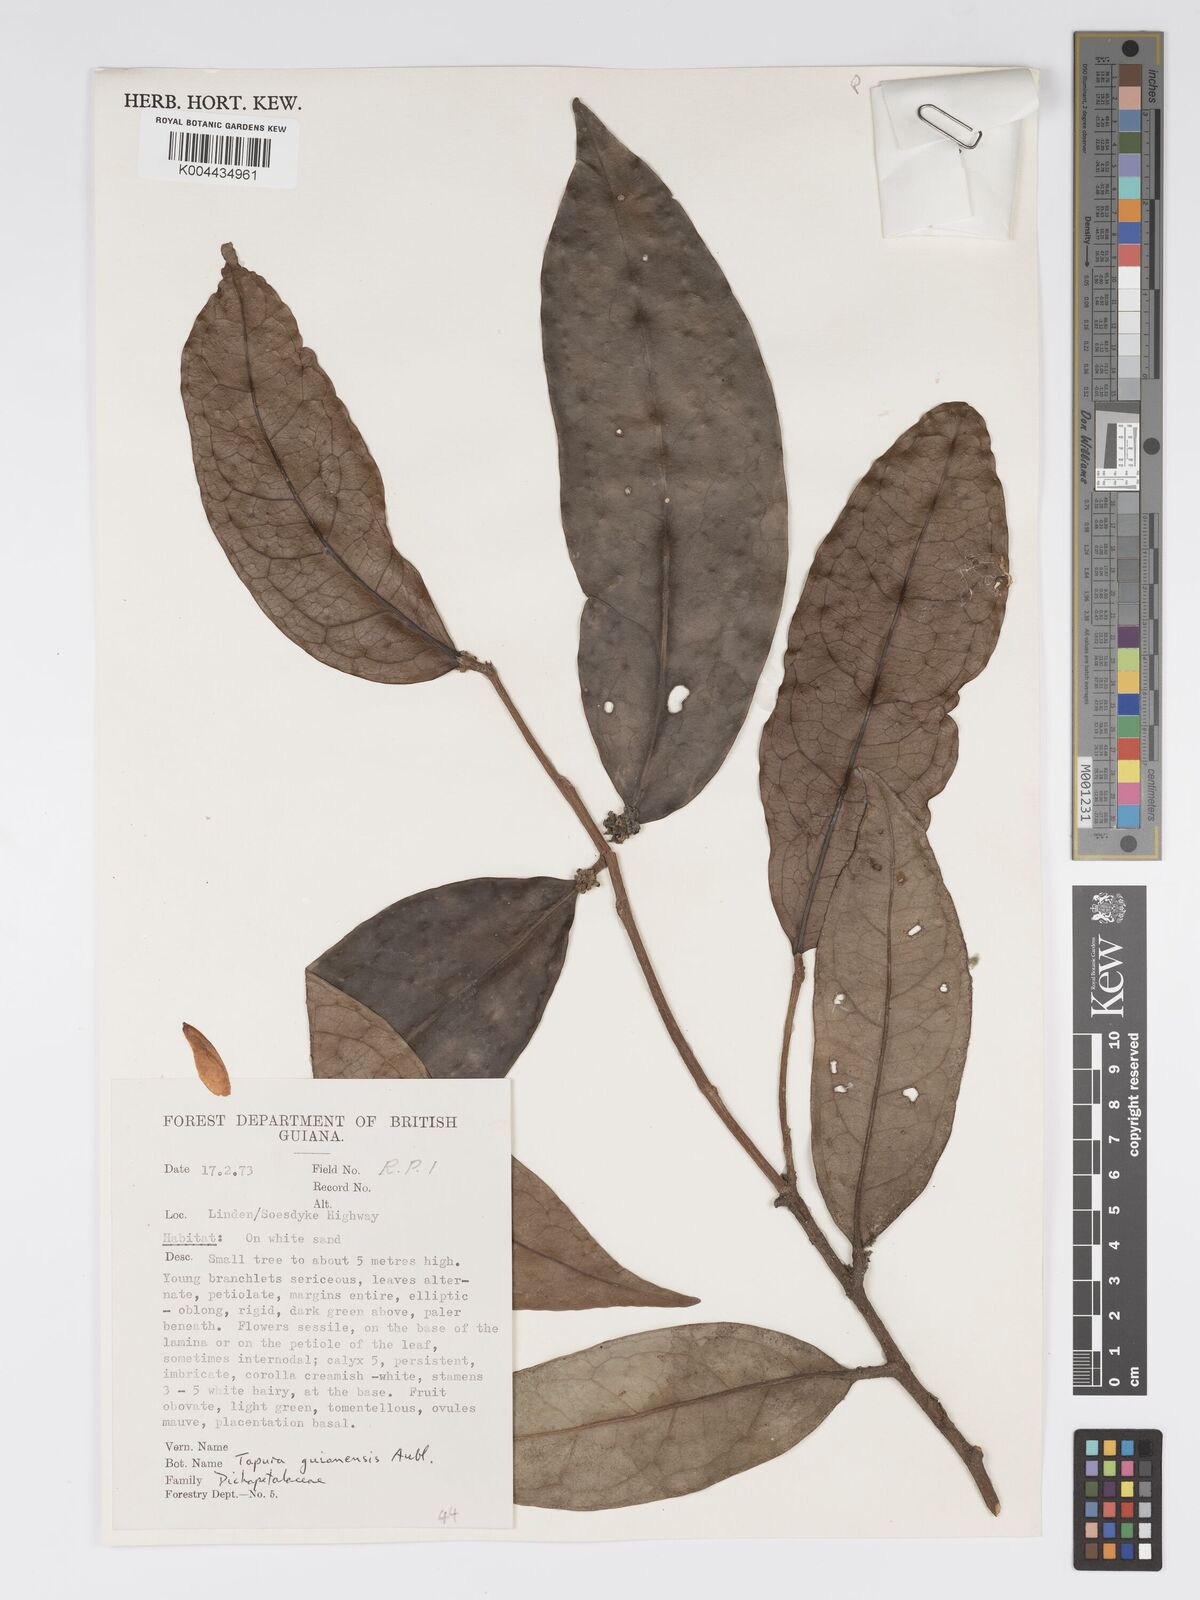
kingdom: Plantae
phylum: Tracheophyta
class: Magnoliopsida
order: Malpighiales
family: Dichapetalaceae
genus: Tapura
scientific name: Tapura guianensis
